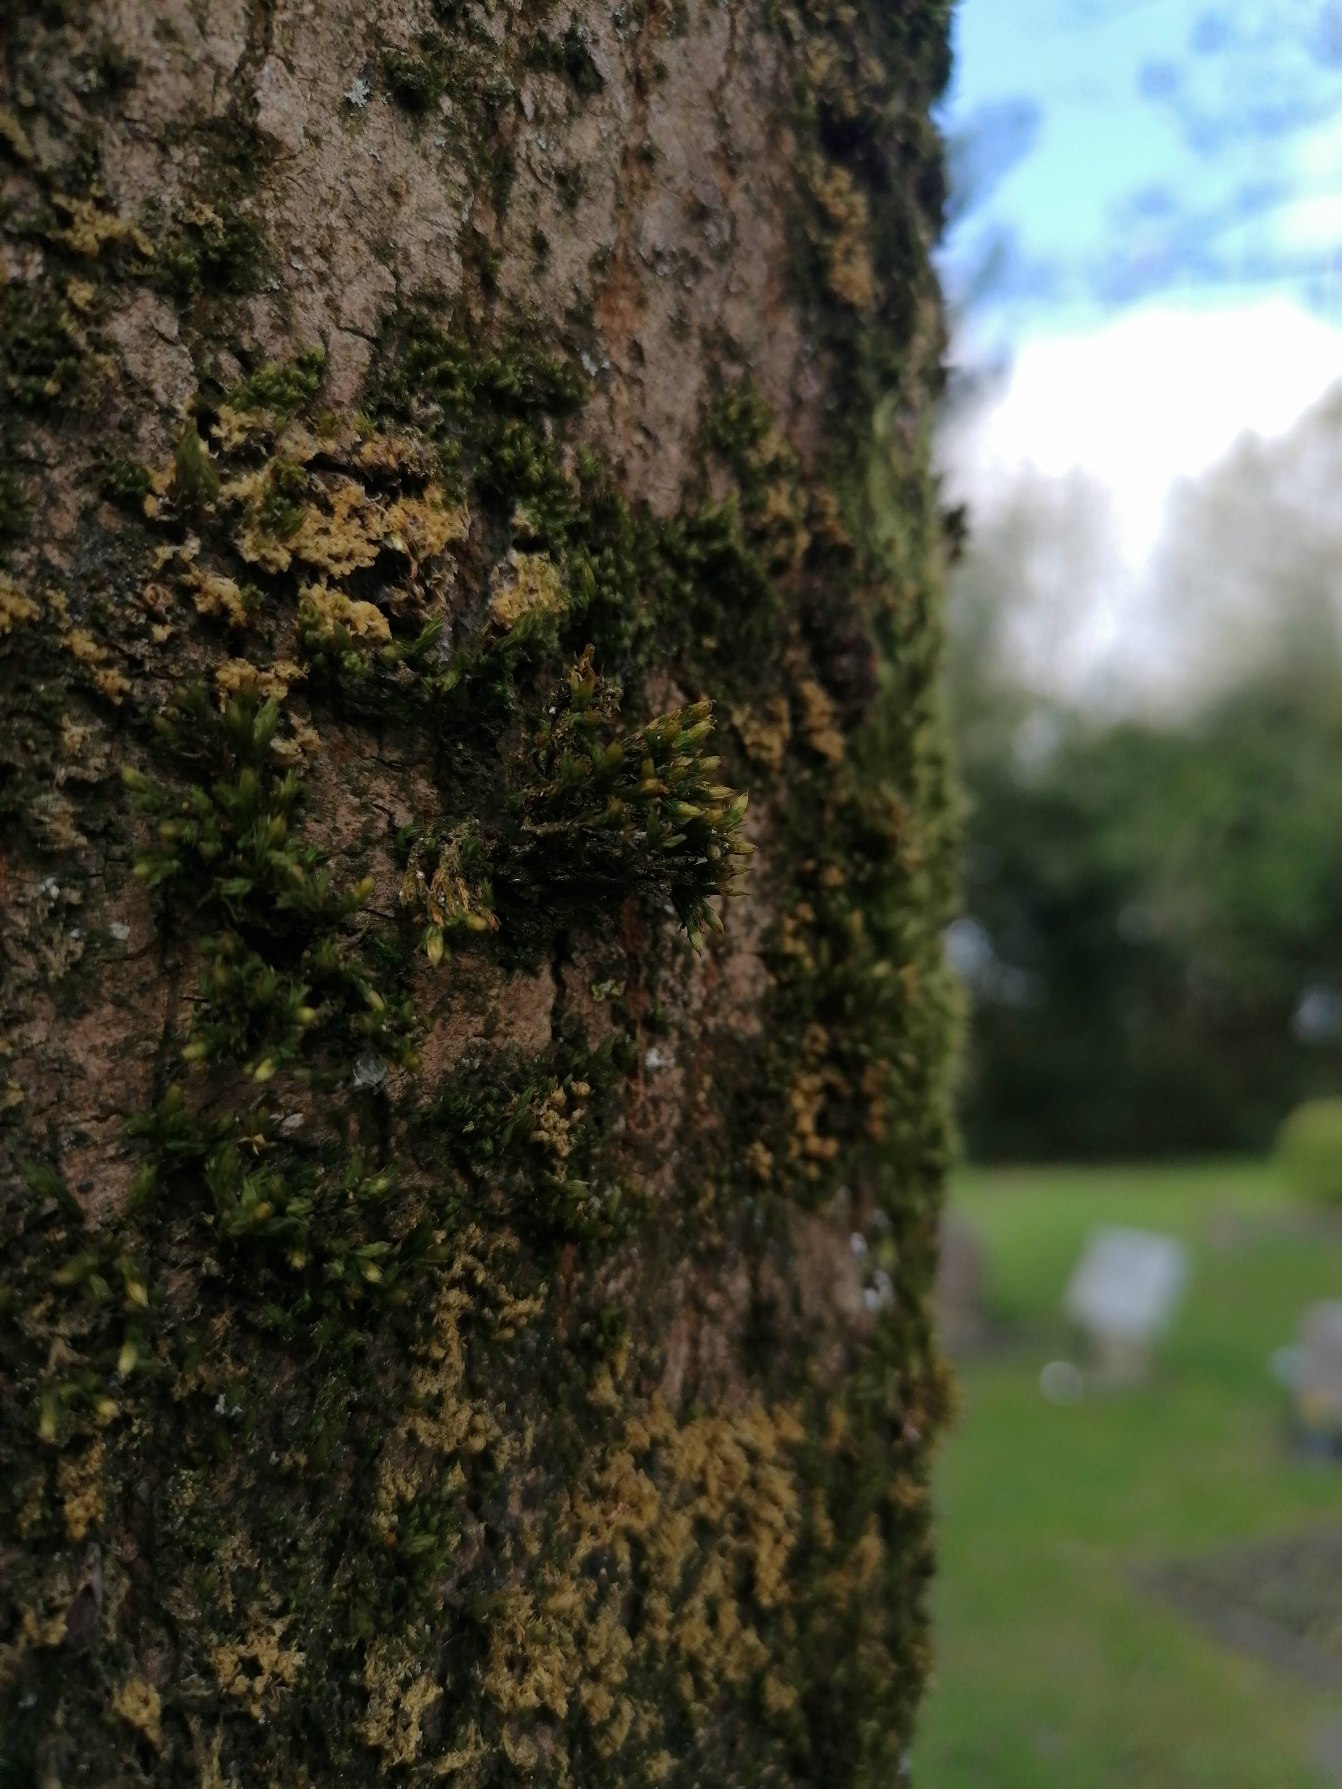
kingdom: Plantae
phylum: Bryophyta
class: Bryopsida
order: Orthotrichales
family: Orthotrichaceae
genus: Lewinskya
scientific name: Lewinskya affinis
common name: Almindelig furehætte
